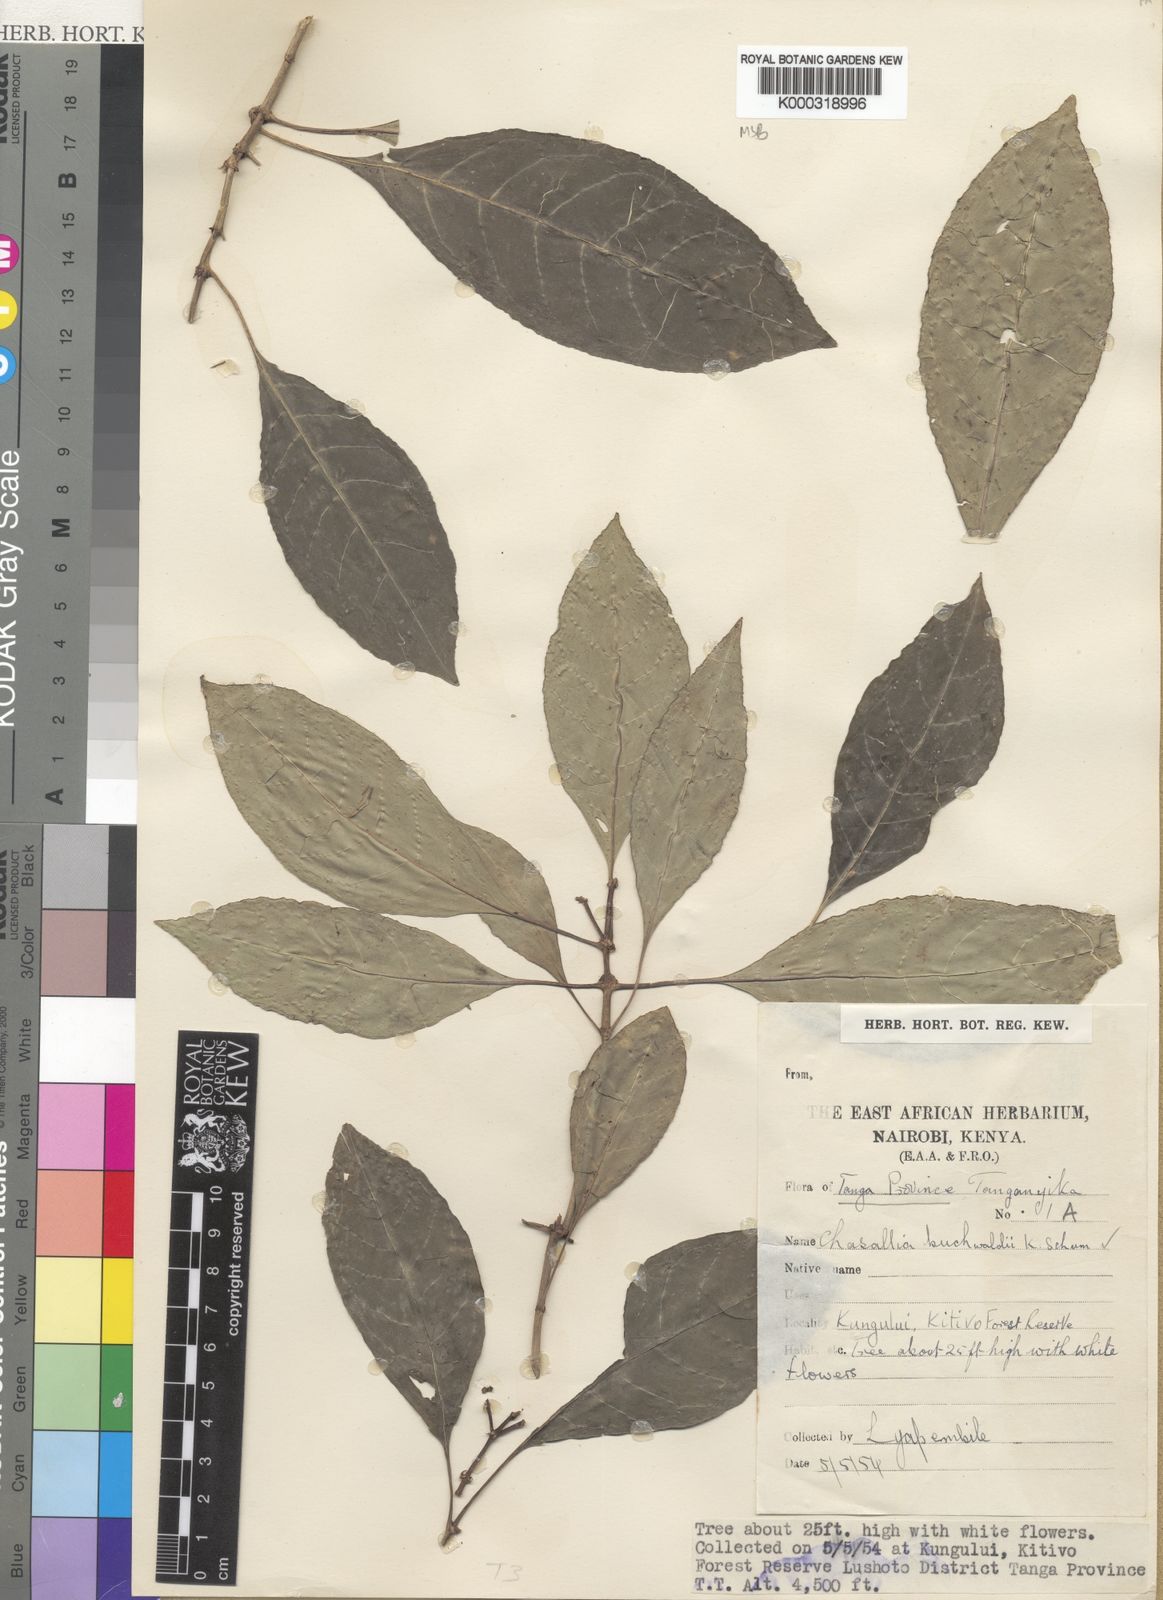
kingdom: Plantae
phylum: Tracheophyta
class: Magnoliopsida
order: Gentianales
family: Rubiaceae
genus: Chassalia
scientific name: Chassalia buchwaldii
